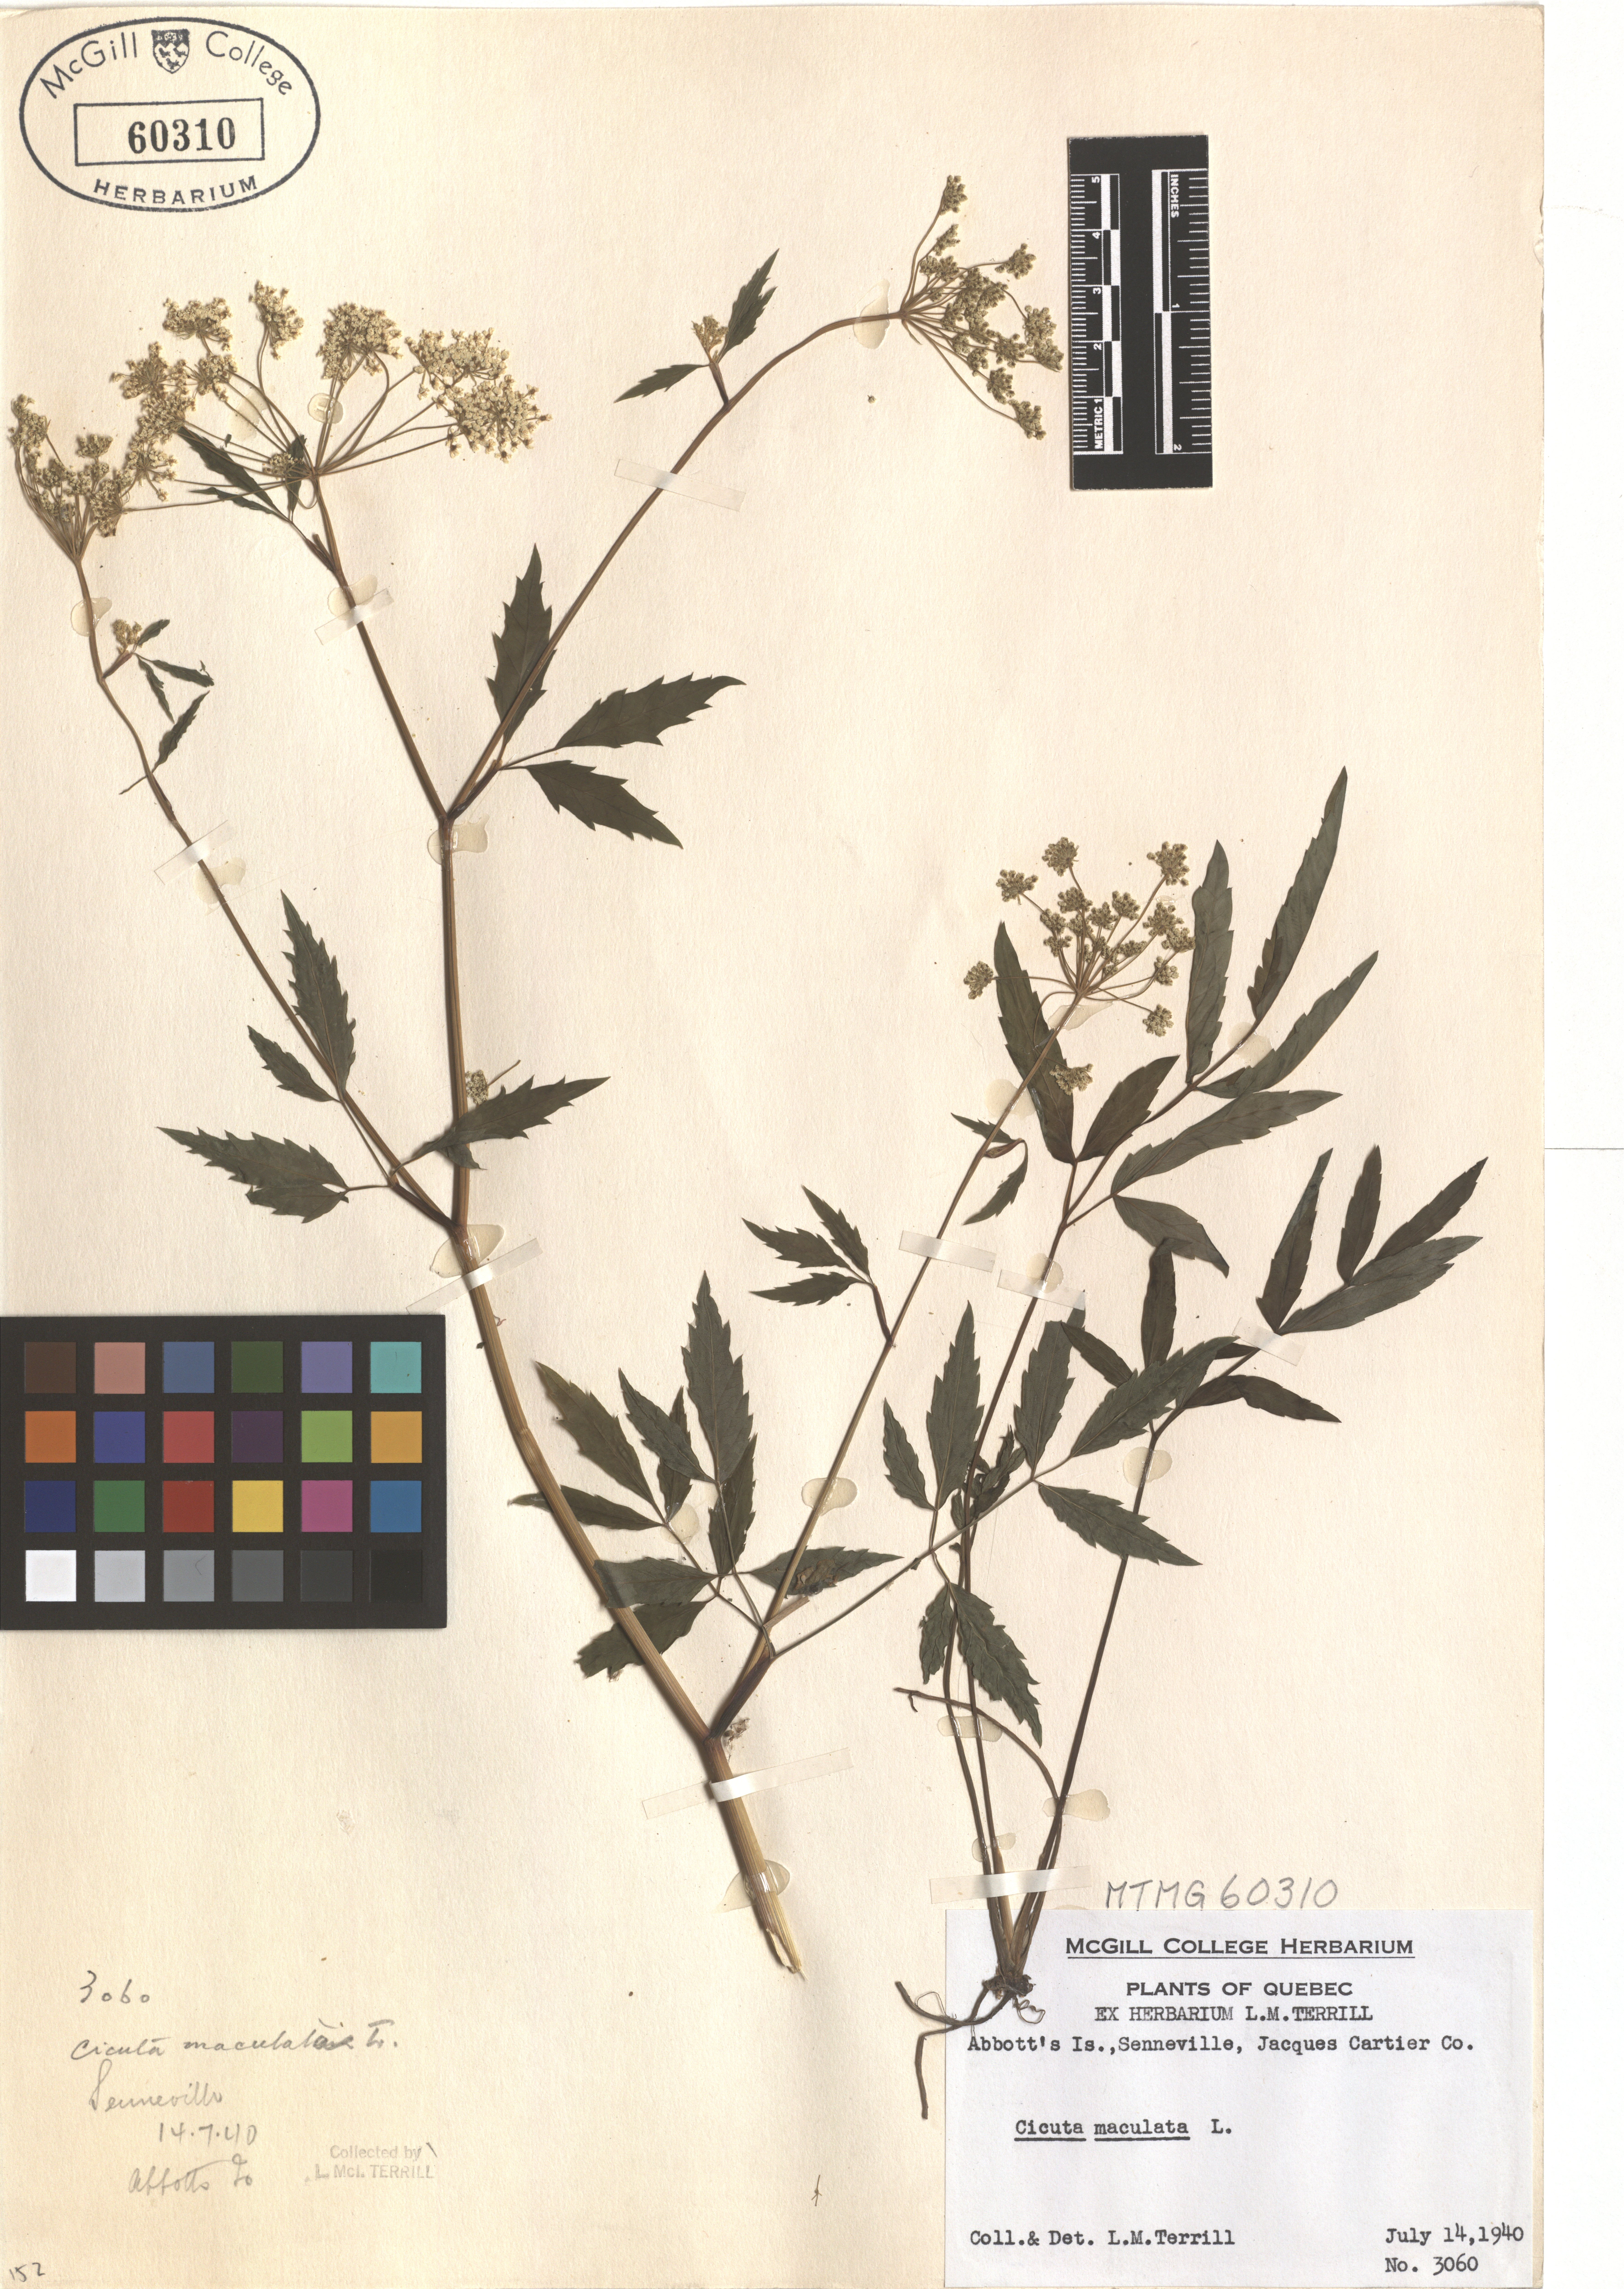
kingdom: Plantae
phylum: Tracheophyta
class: Magnoliopsida
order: Apiales
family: Apiaceae
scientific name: Apiaceae
